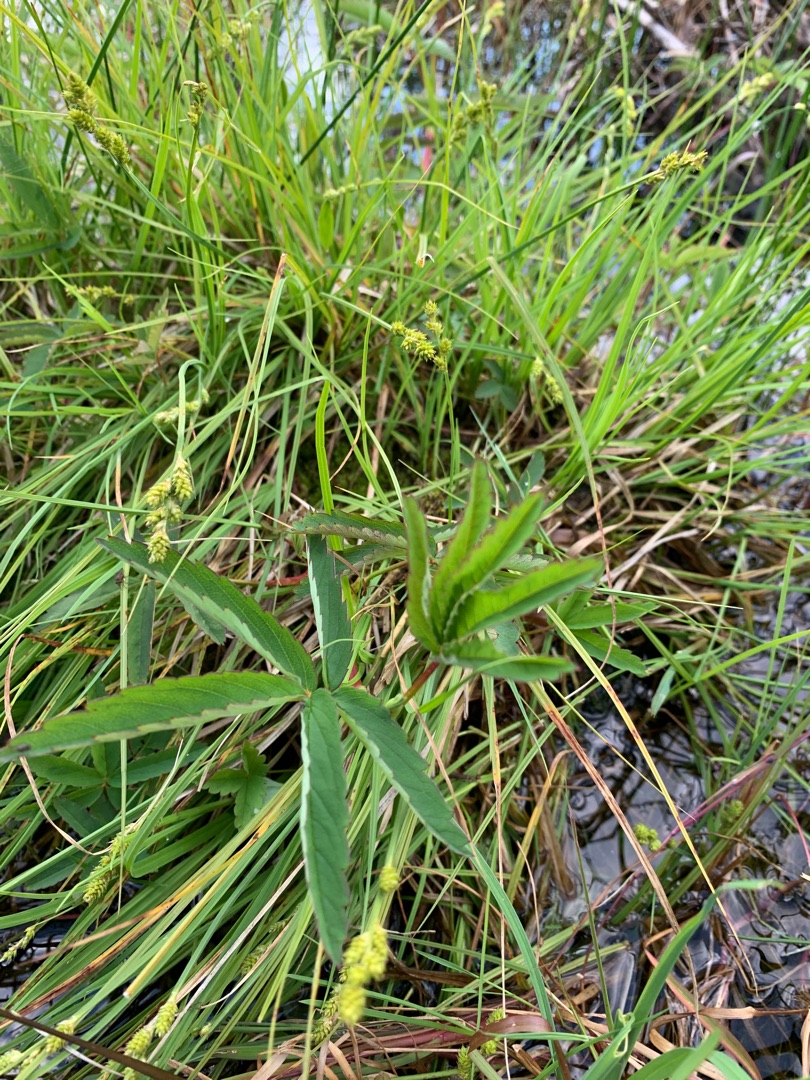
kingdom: Plantae
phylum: Tracheophyta
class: Magnoliopsida
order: Rosales
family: Rosaceae
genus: Comarum
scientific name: Comarum palustre
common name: Kragefod
